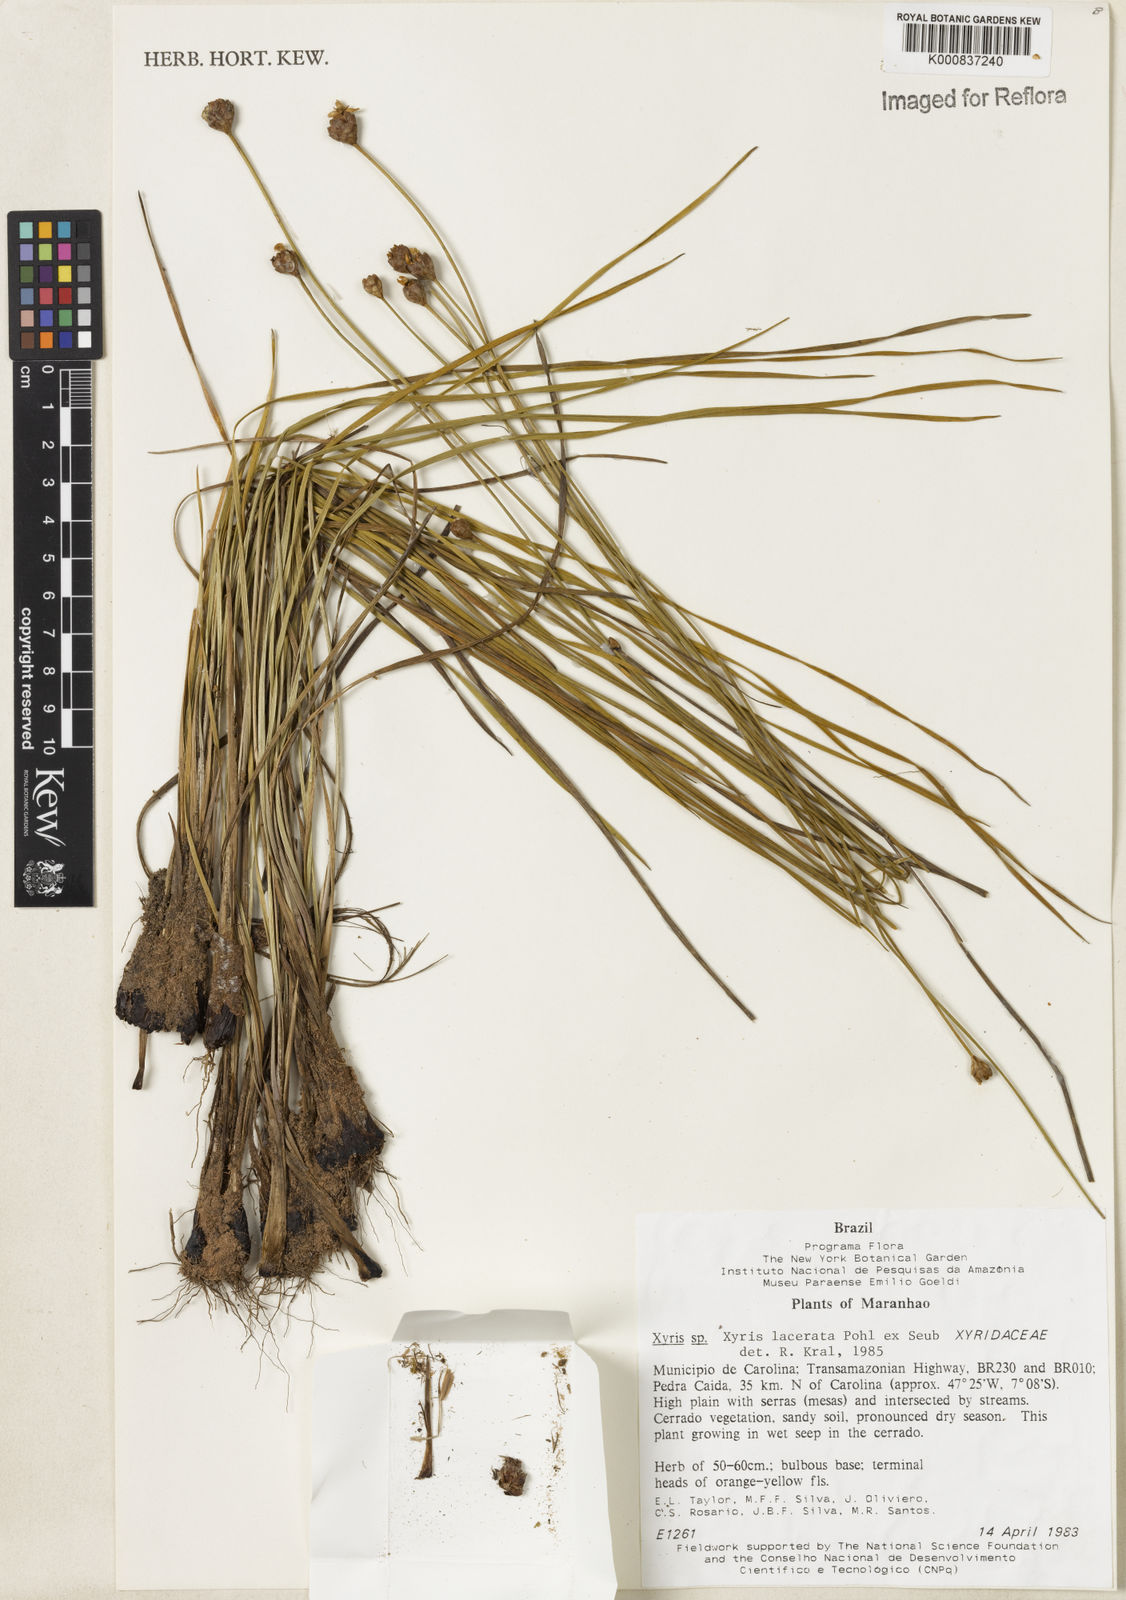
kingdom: Plantae
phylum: Tracheophyta
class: Liliopsida
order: Poales
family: Xyridaceae
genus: Xyris
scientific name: Xyris lacerata
